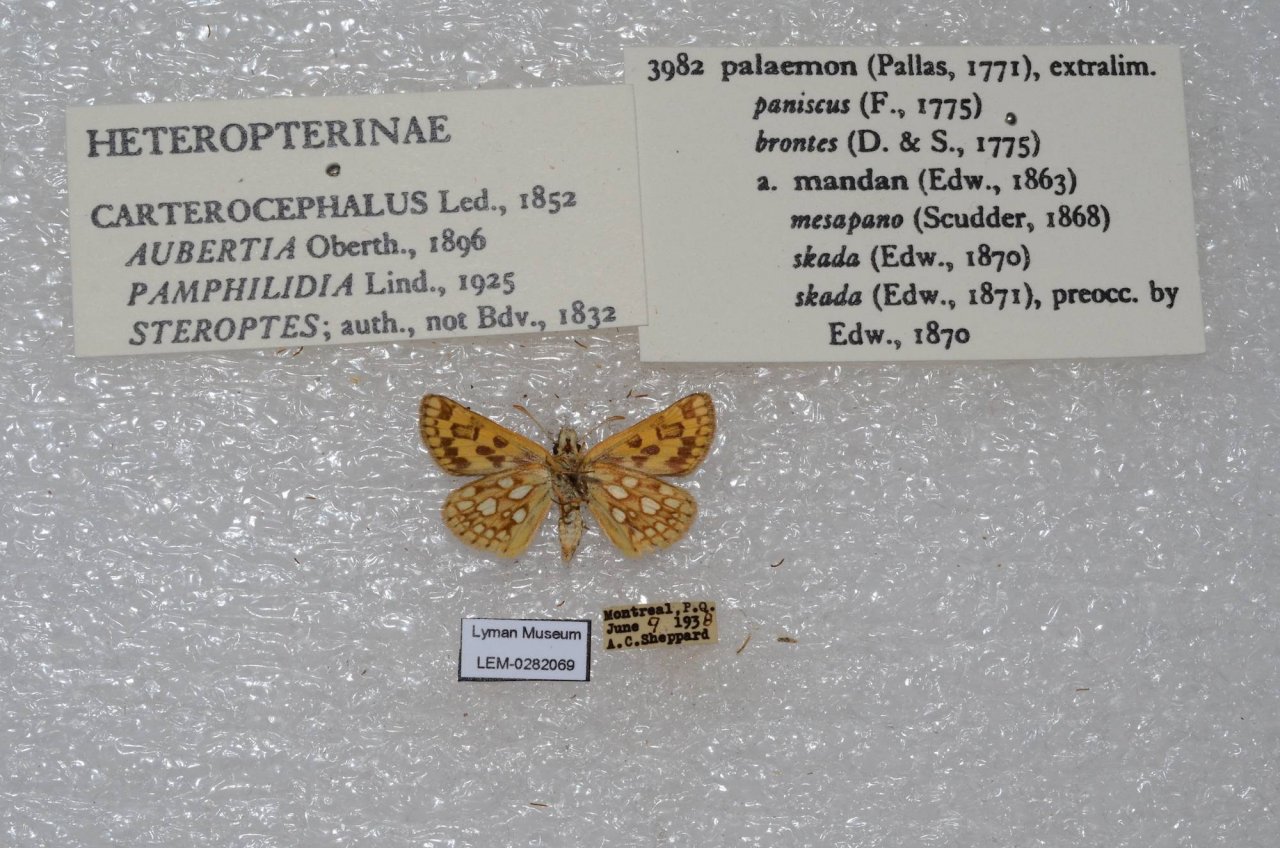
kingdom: Animalia
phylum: Arthropoda
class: Insecta
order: Lepidoptera
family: Hesperiidae
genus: Carterocephalus
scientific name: Carterocephalus palaemon
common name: Chequered Skipper
